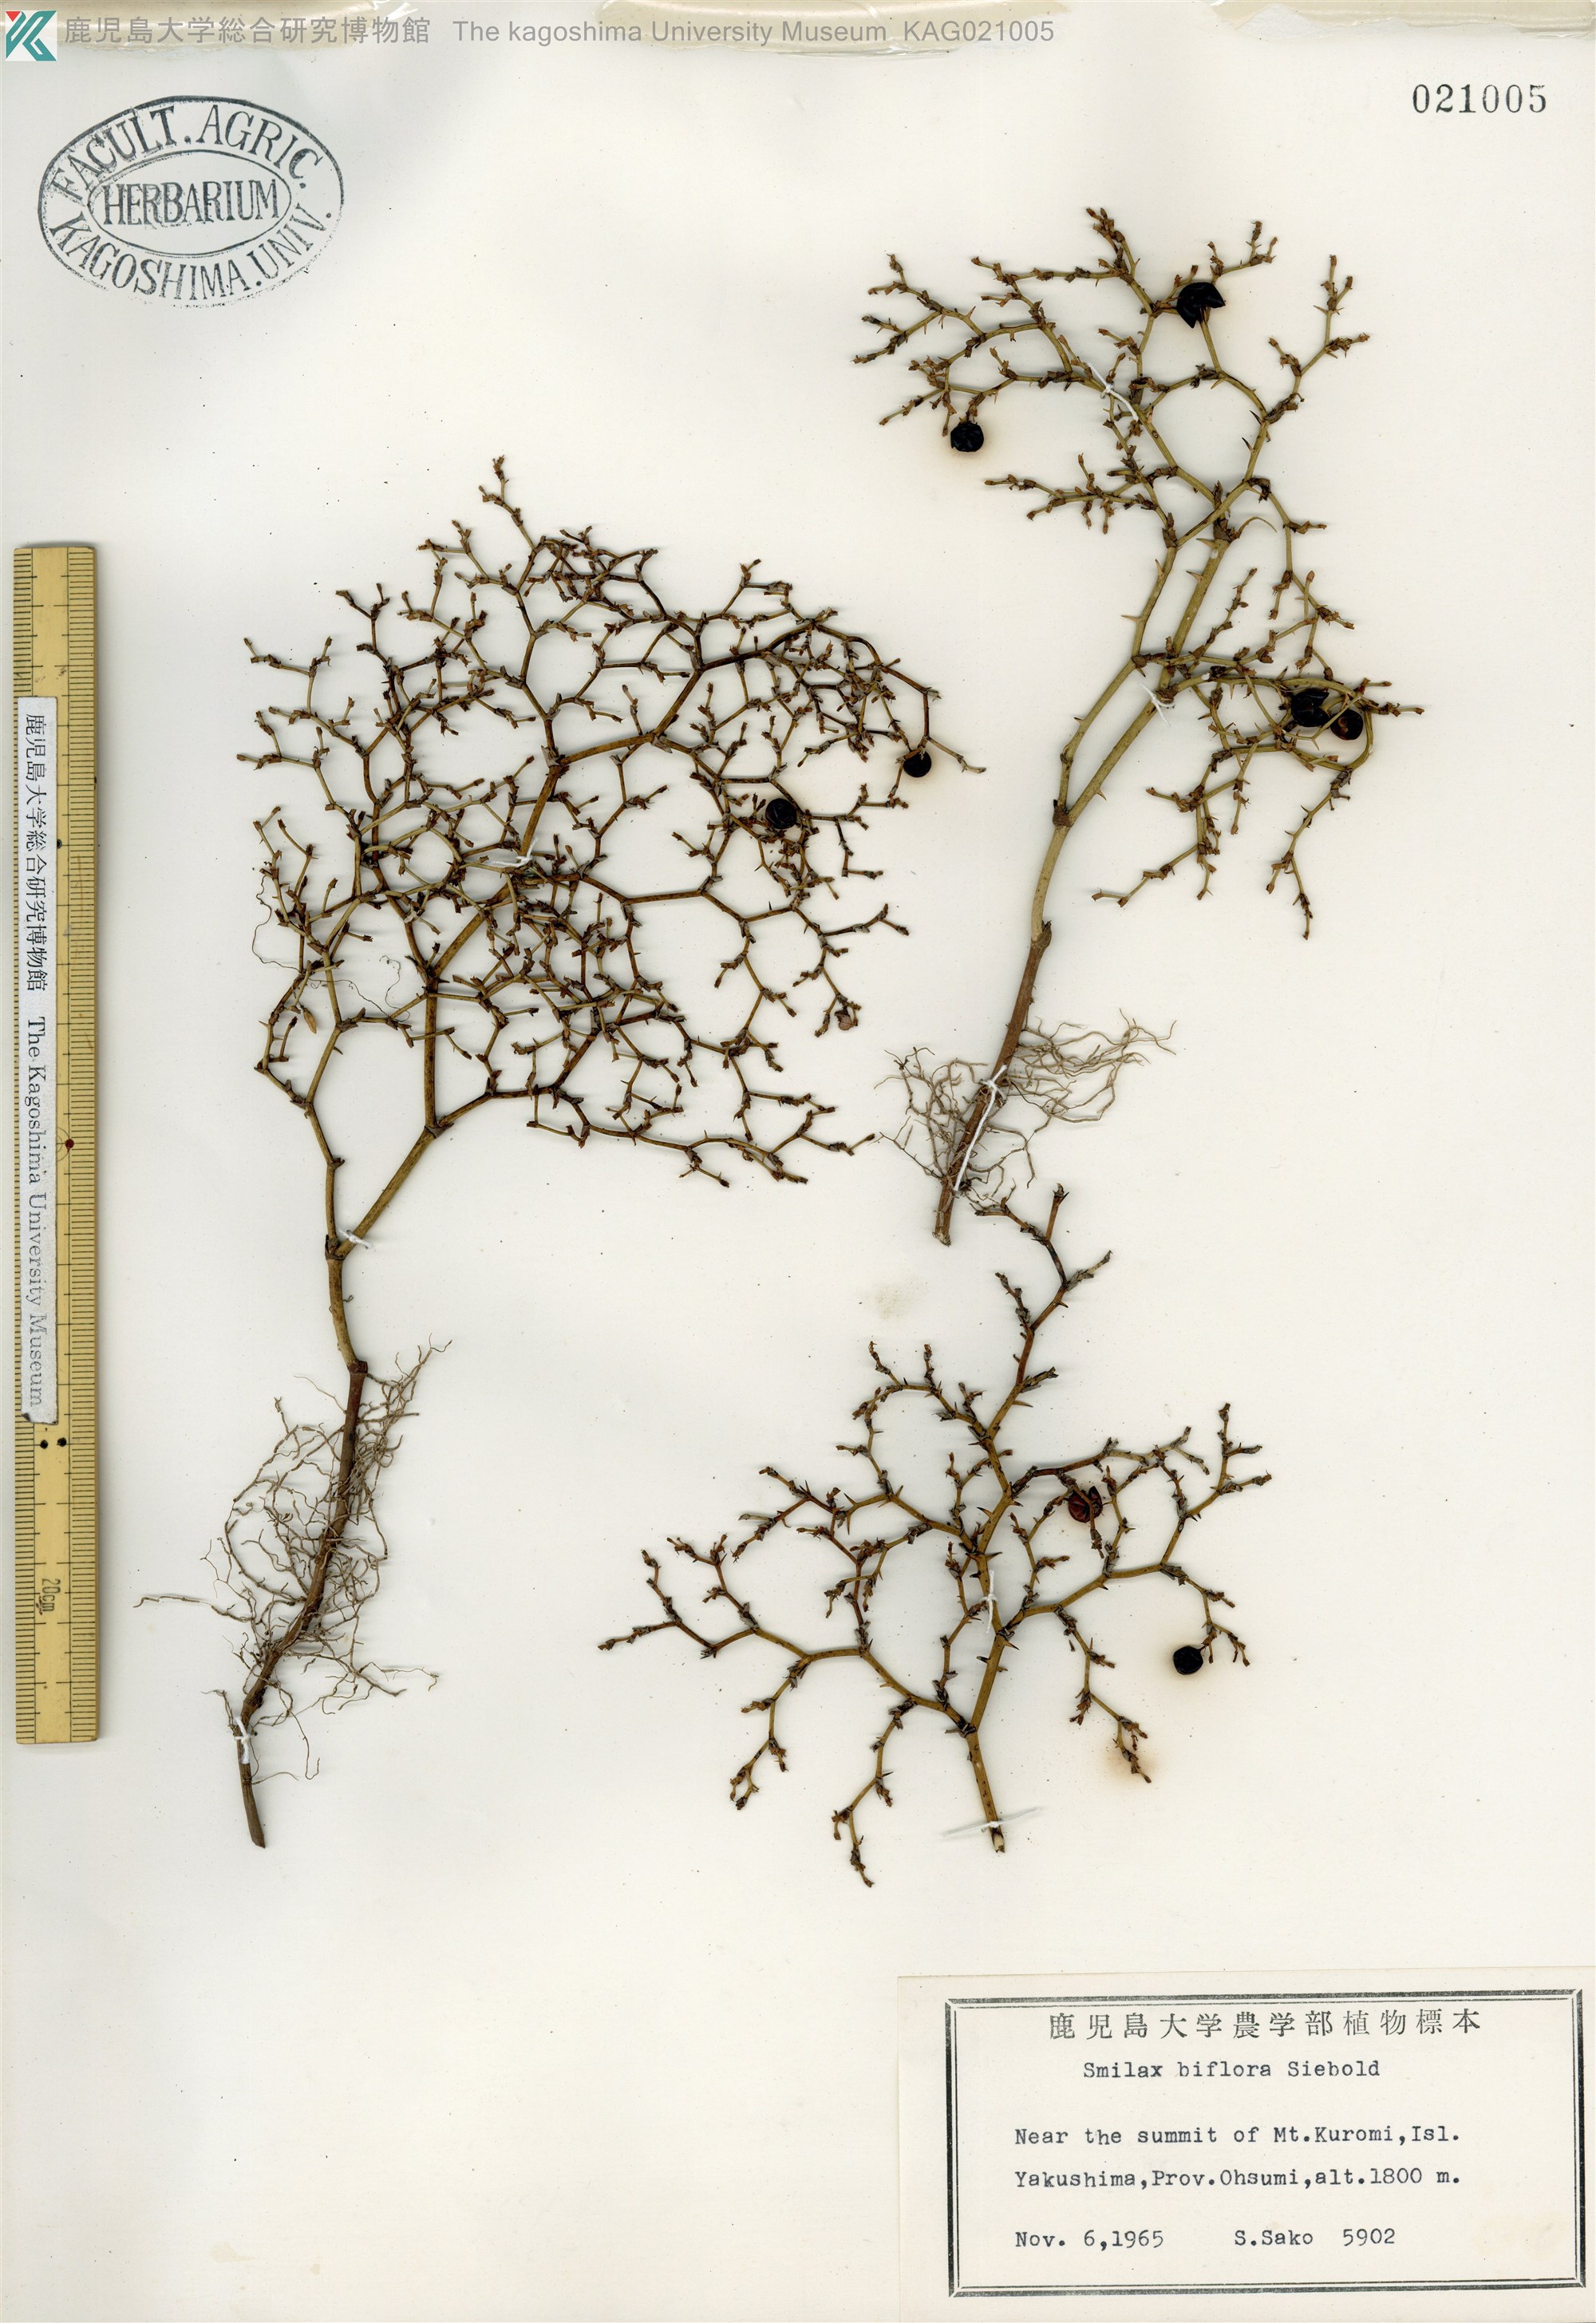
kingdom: Plantae
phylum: Tracheophyta
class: Liliopsida
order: Liliales
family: Smilacaceae
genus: Smilax
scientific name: Smilax biflora
